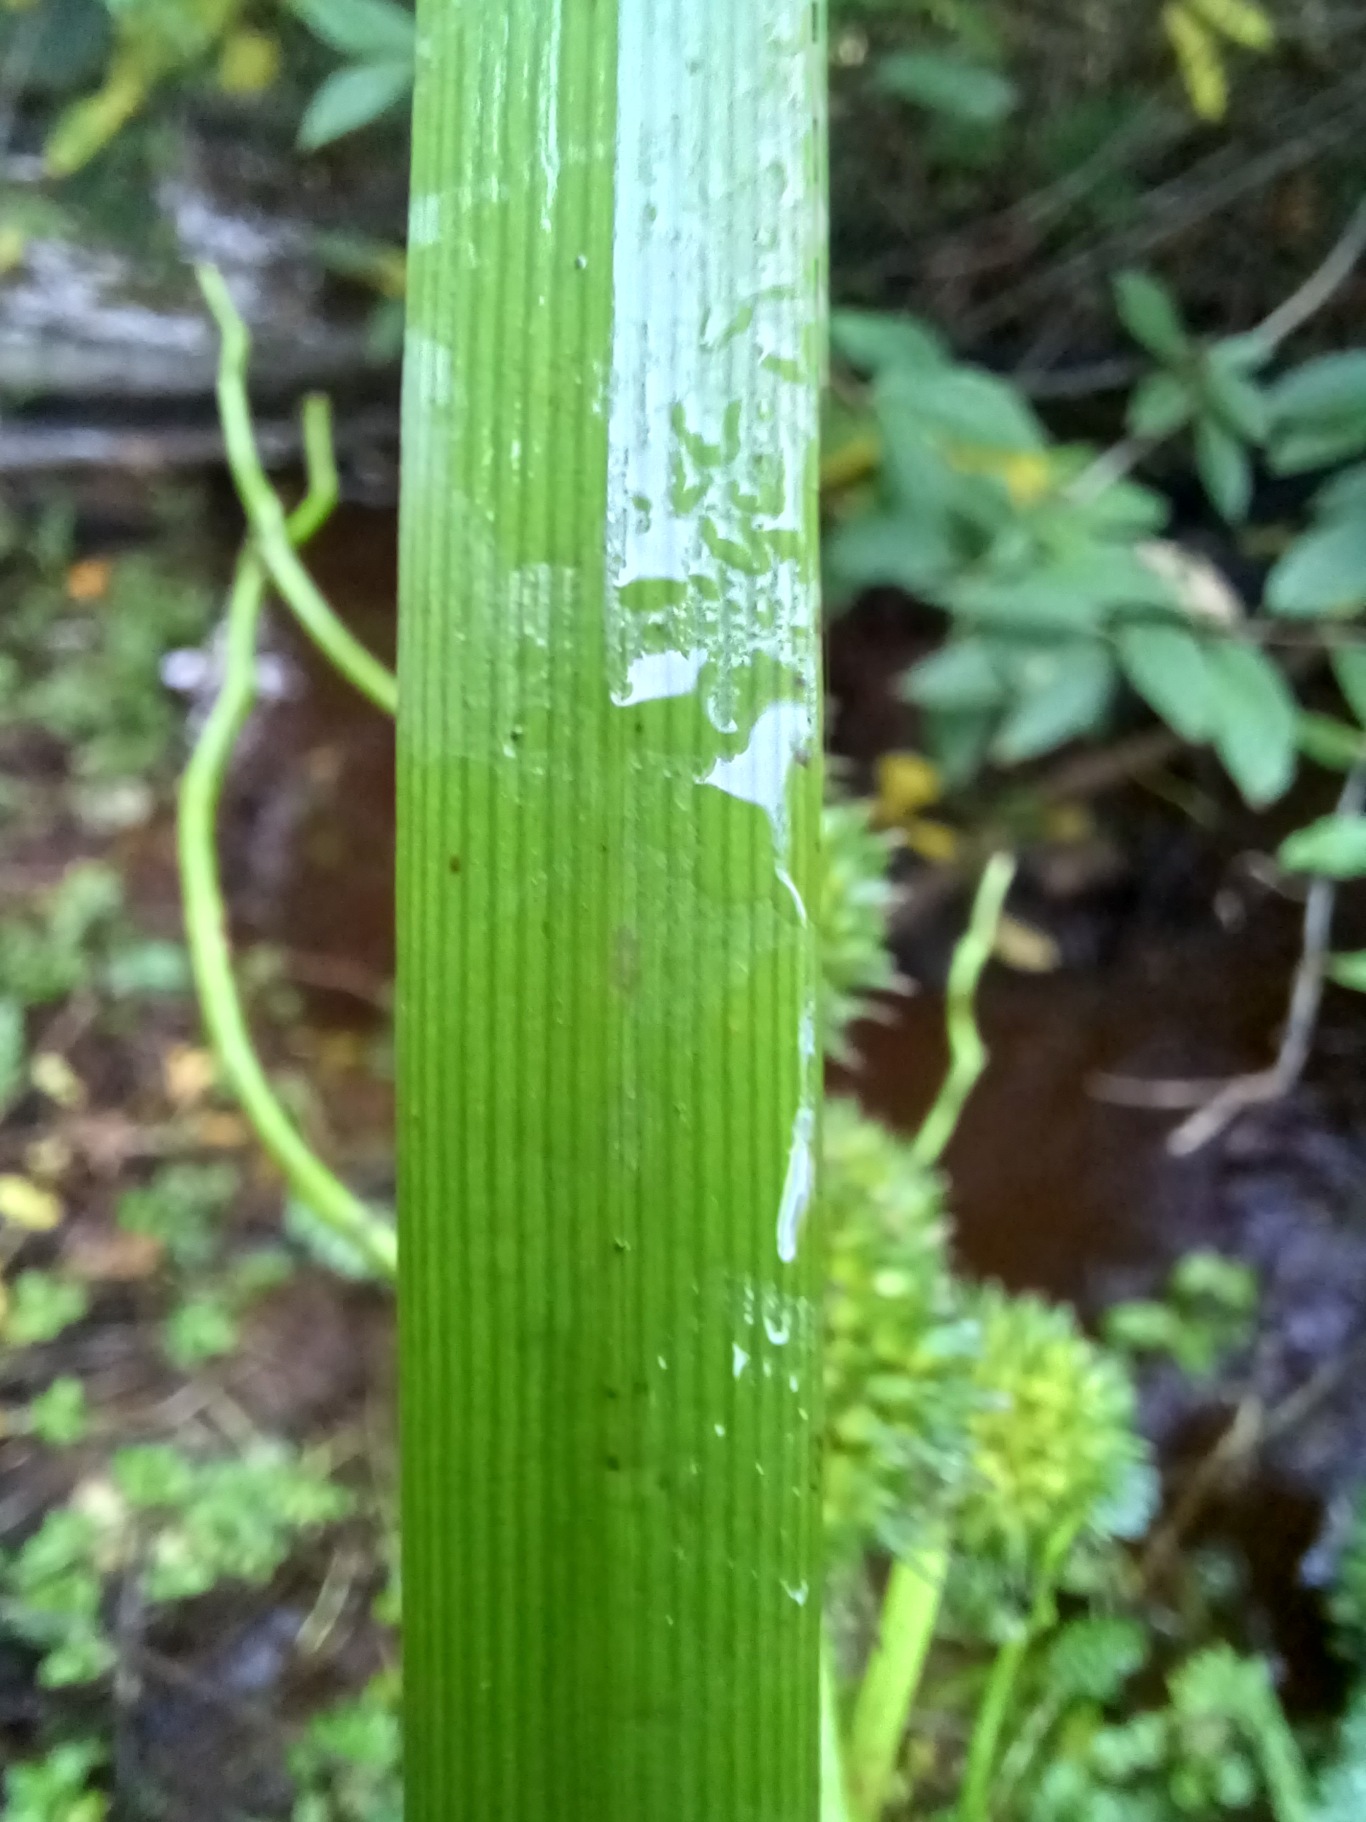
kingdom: Plantae
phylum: Tracheophyta
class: Liliopsida
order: Poales
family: Typhaceae
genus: Sparganium
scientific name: Sparganium erectum
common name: Grenet pindsvineknop
